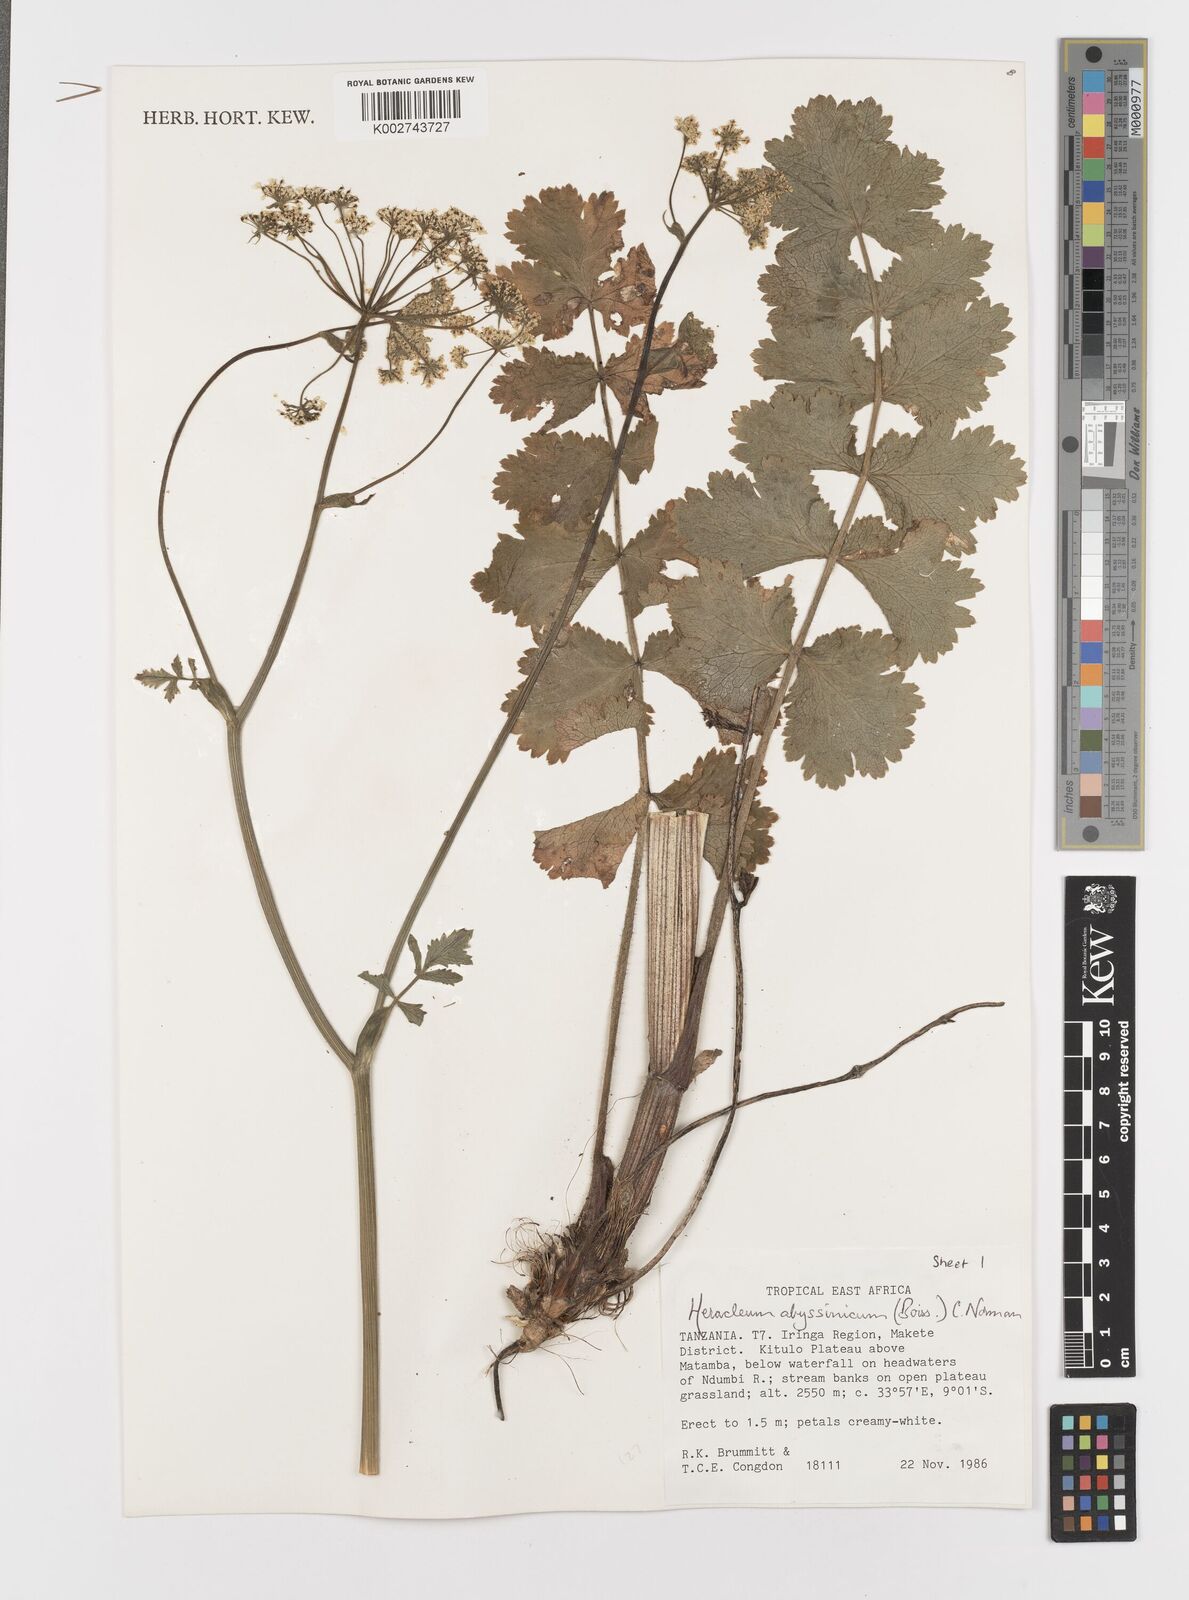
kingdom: Plantae
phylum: Tracheophyta
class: Magnoliopsida
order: Apiales
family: Apiaceae
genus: Heracleum
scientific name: Heracleum abyssinicum
